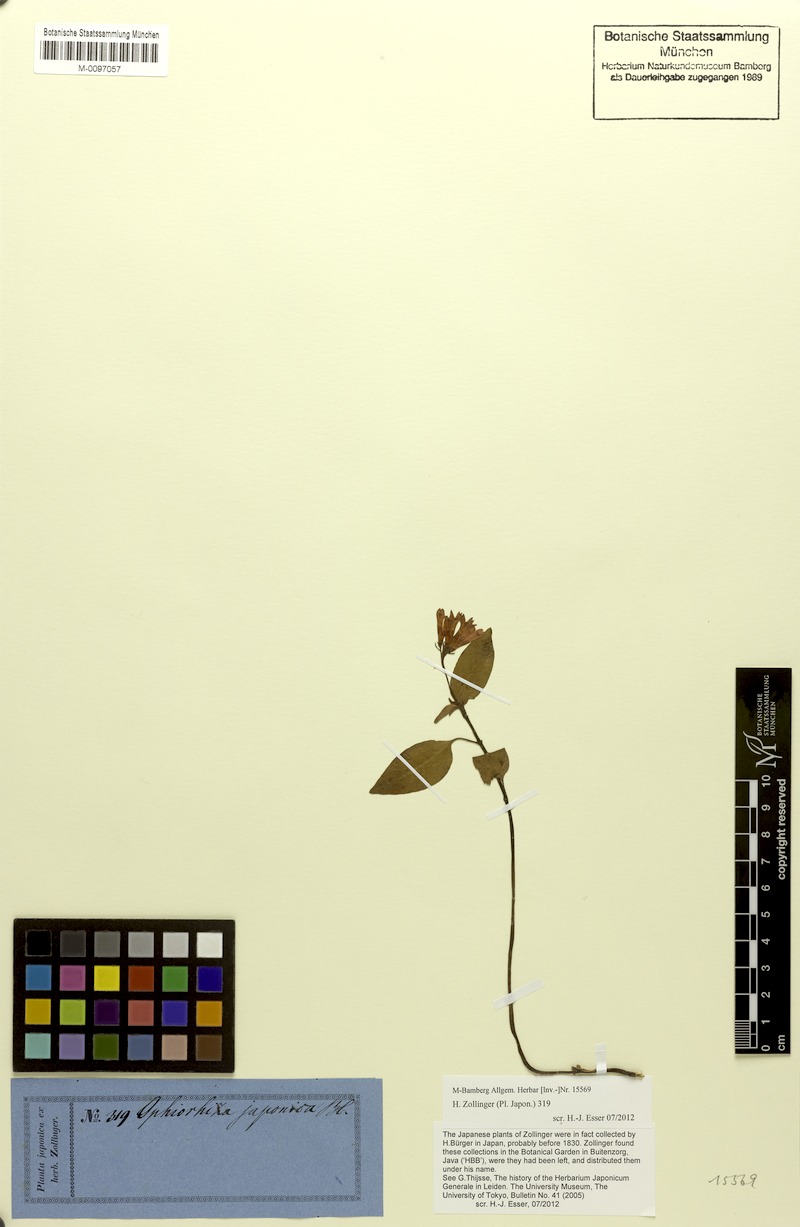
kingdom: Plantae
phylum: Tracheophyta
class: Magnoliopsida
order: Gentianales
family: Rubiaceae
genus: Ophiorrhiza
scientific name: Ophiorrhiza japonica
